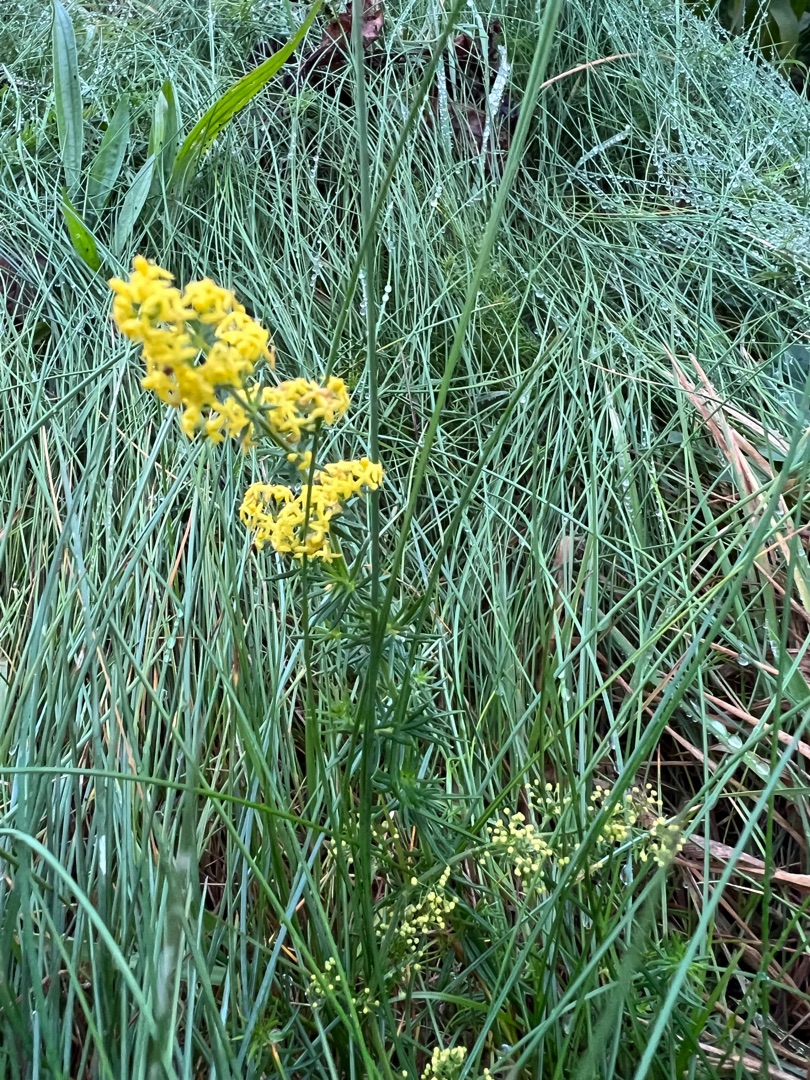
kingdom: Plantae
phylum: Tracheophyta
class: Magnoliopsida
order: Gentianales
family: Rubiaceae
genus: Galium
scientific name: Galium verum
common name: Gul snerre
